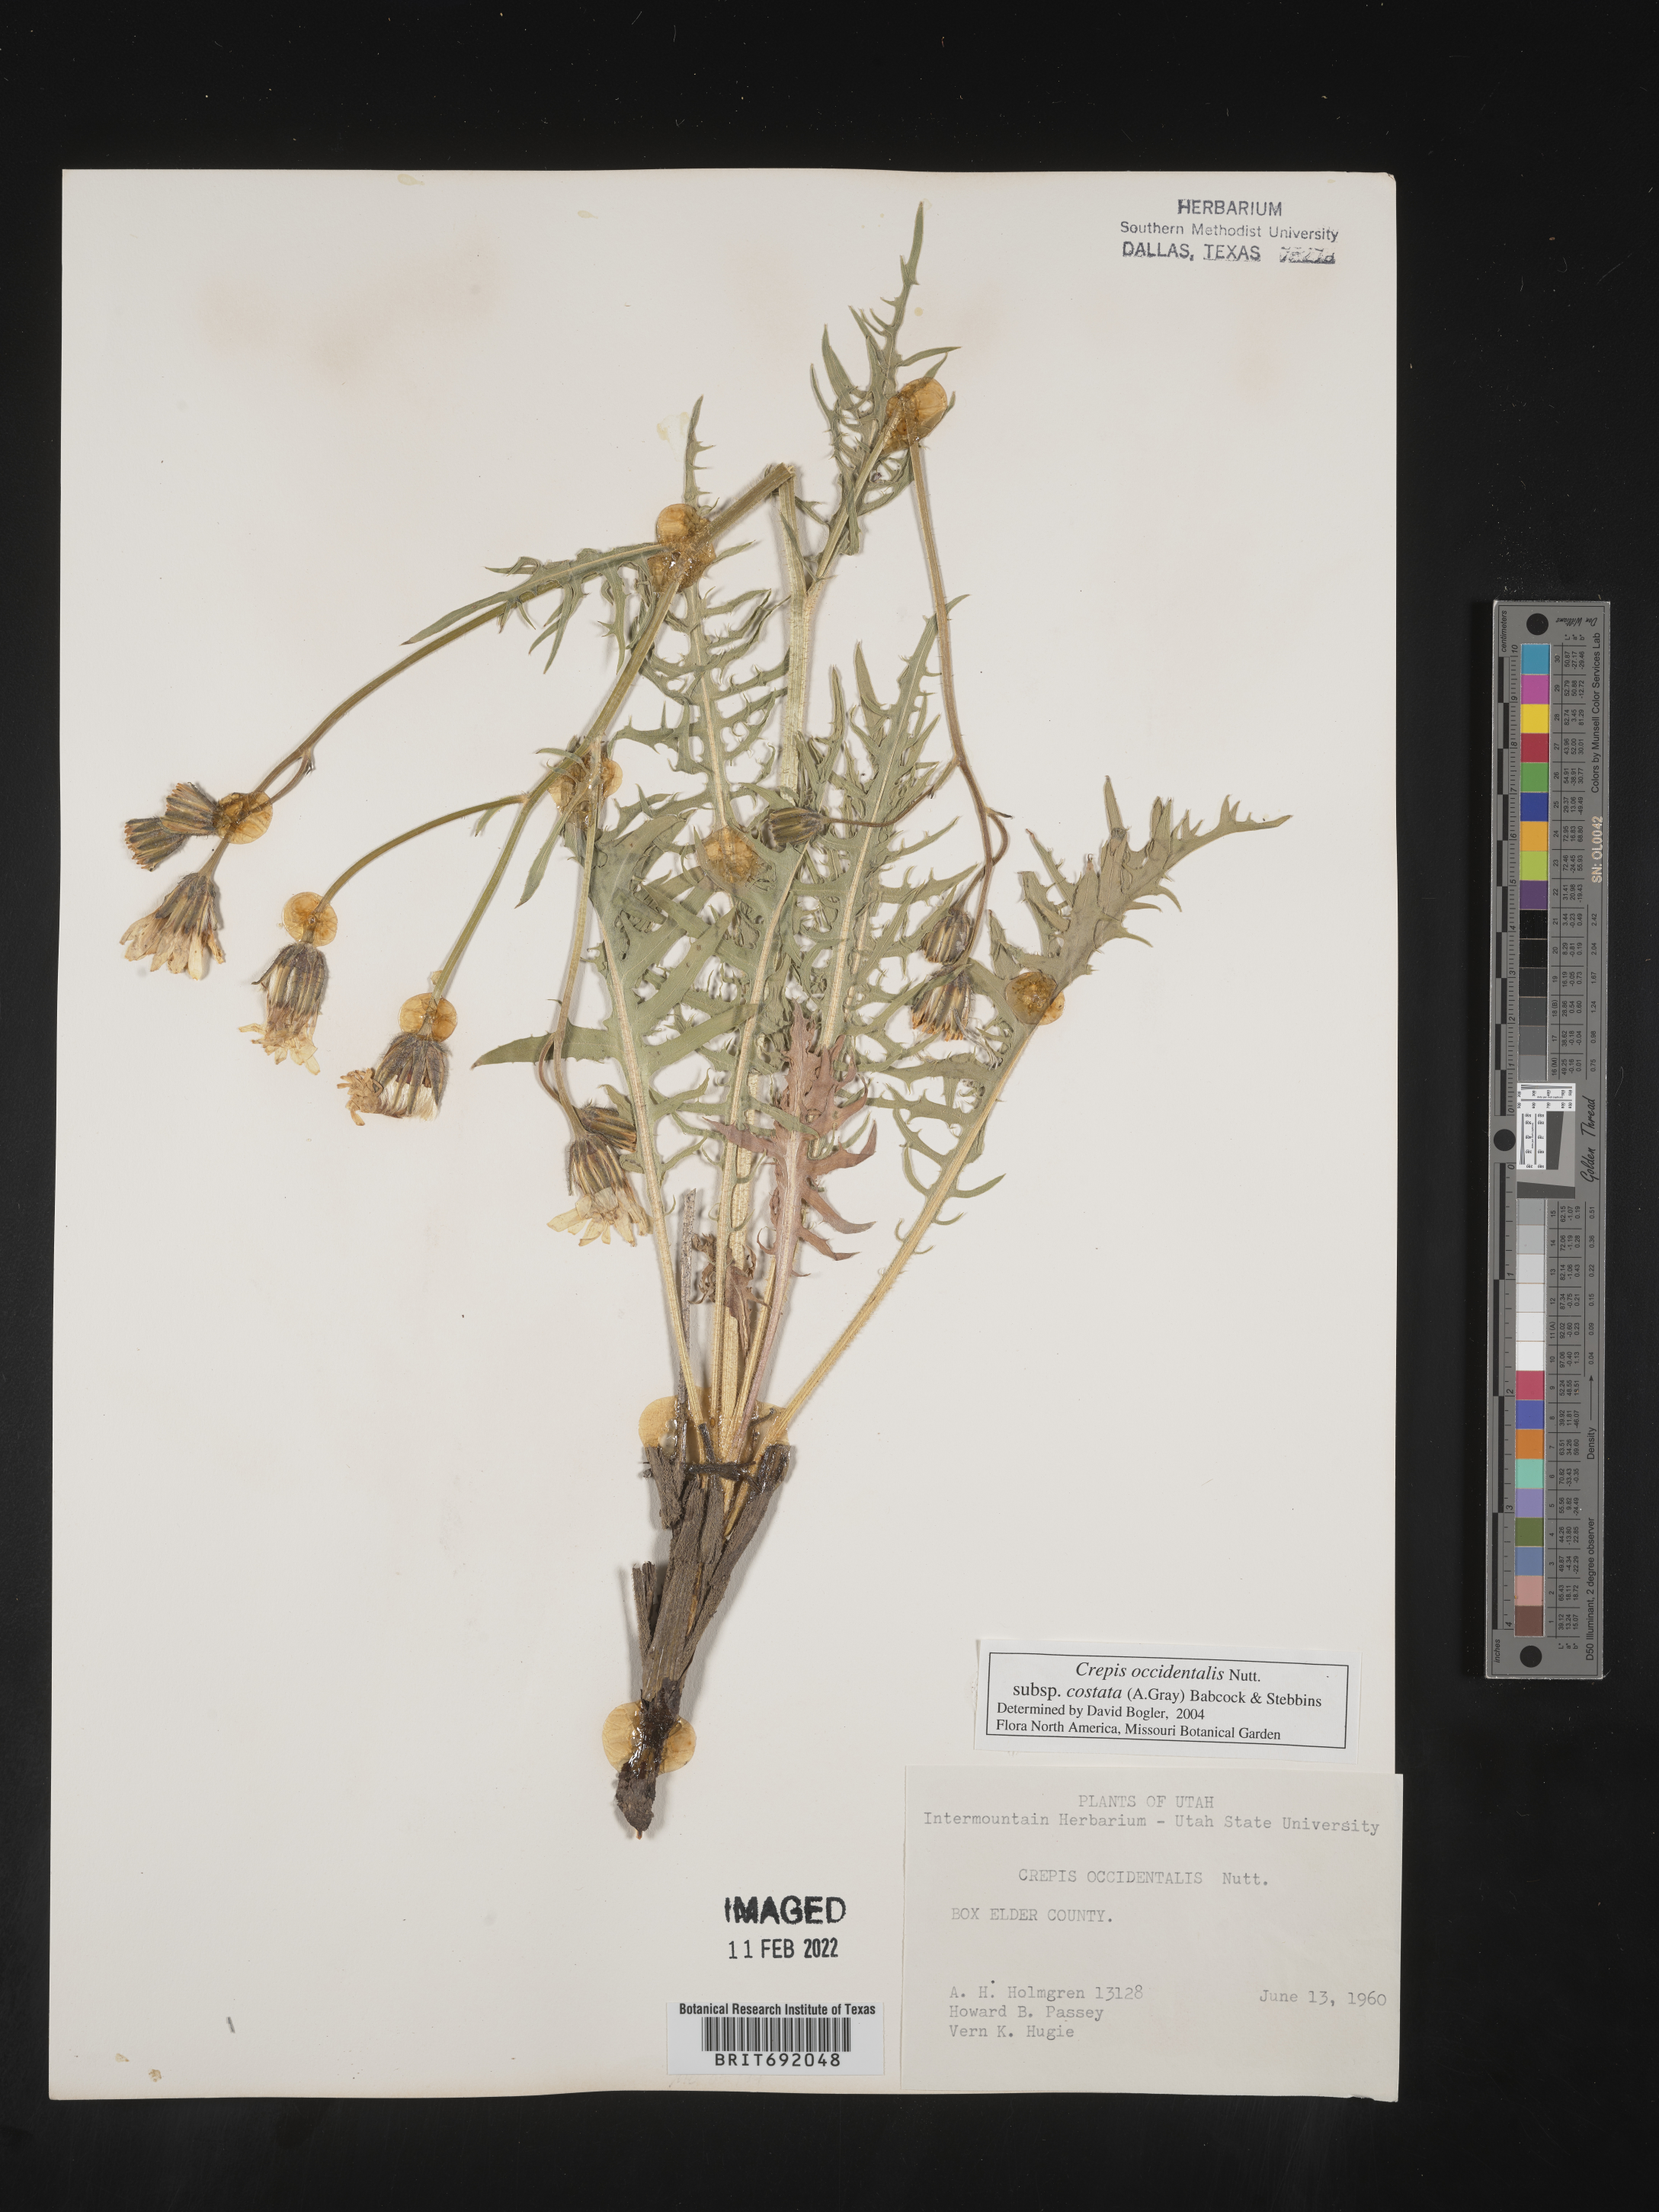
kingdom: Plantae
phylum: Tracheophyta
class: Magnoliopsida
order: Asterales
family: Asteraceae
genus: Crepis
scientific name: Crepis occidentalis
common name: Gray hawk's-beard
